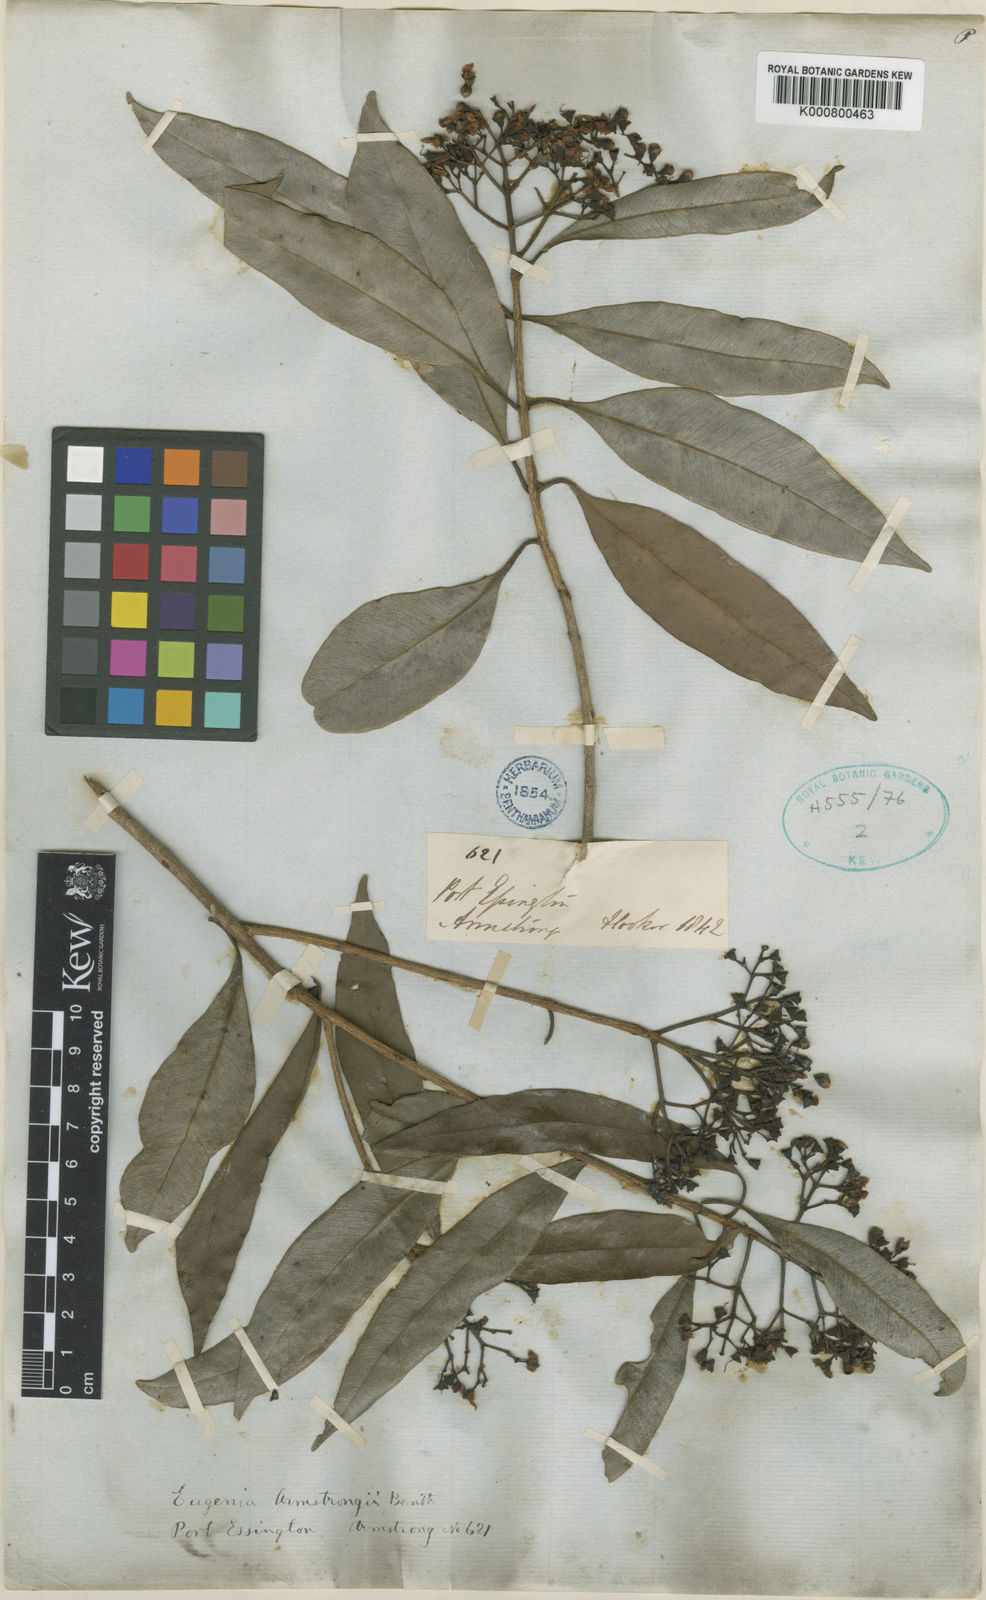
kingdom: Plantae
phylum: Tracheophyta
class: Magnoliopsida
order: Myrtales
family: Myrtaceae
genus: Syzygium
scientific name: Syzygium armstrongii
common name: Small white bush apple
